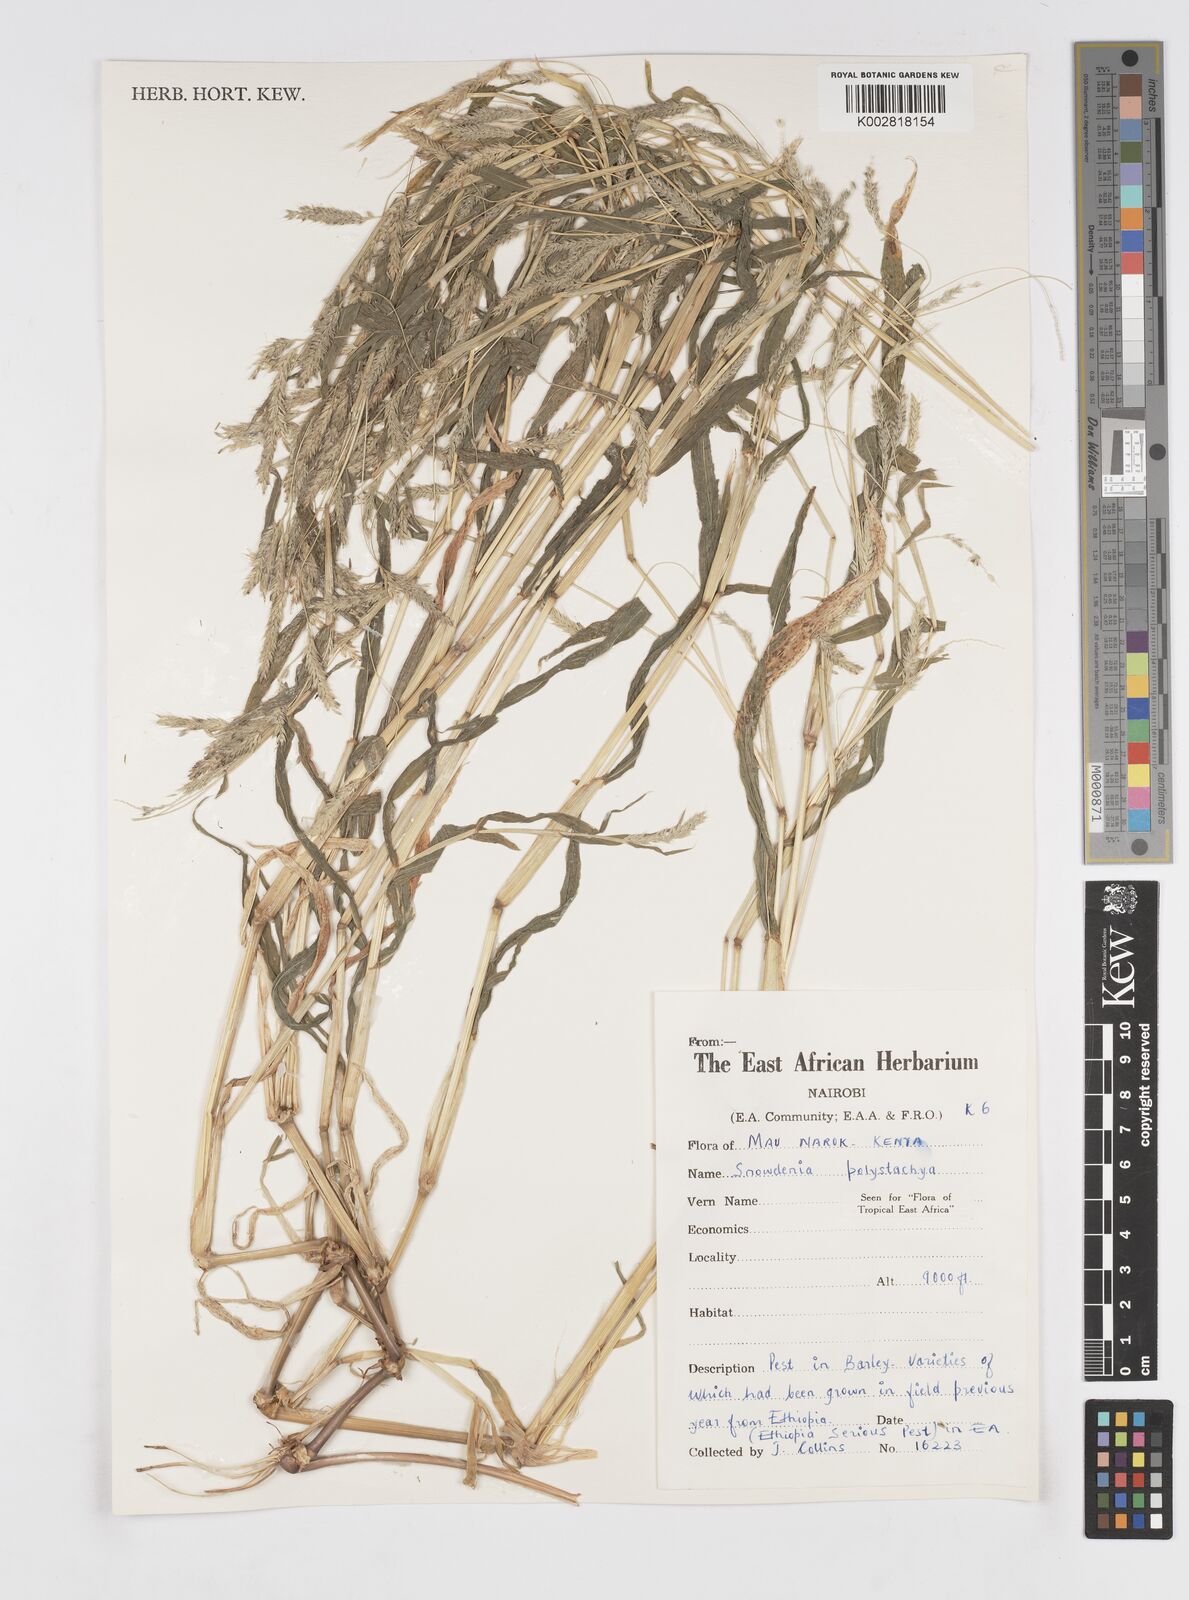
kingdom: Plantae
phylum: Tracheophyta
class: Liliopsida
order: Poales
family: Poaceae
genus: Snowdenia
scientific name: Snowdenia polystachya
